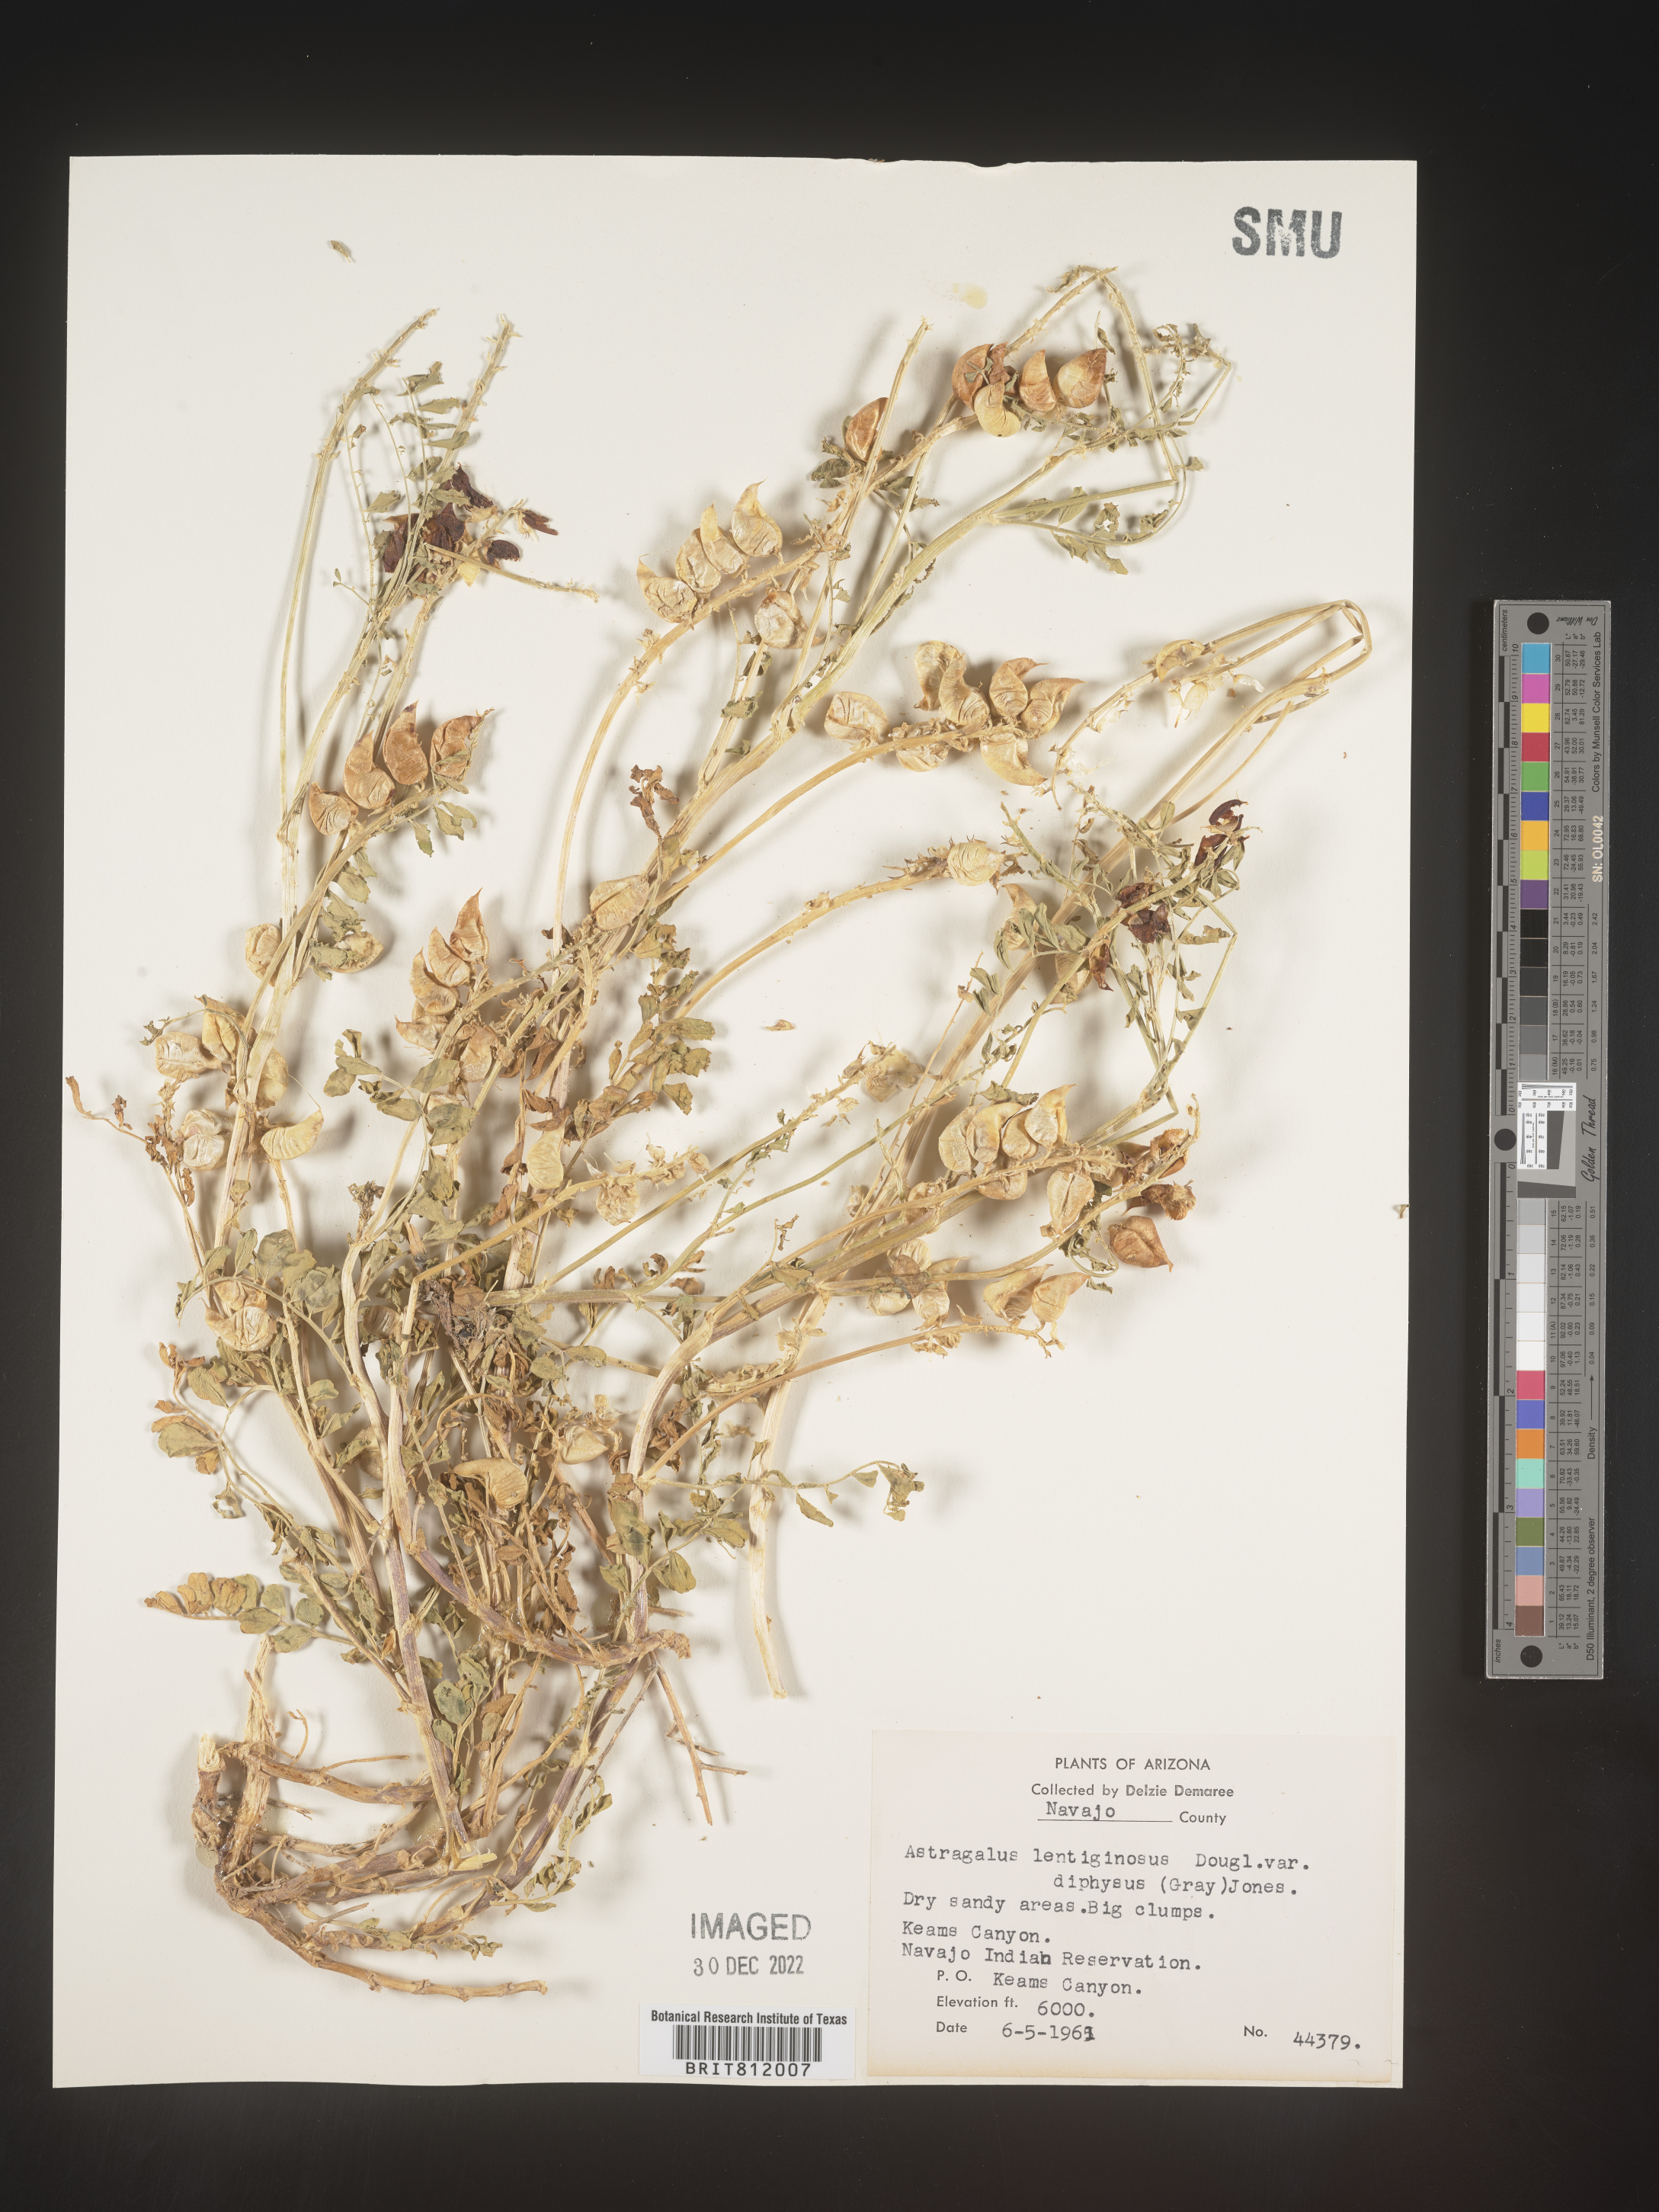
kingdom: Plantae
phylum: Tracheophyta
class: Magnoliopsida
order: Fabales
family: Fabaceae
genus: Astragalus
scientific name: Astragalus lentiginosus
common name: Freckled milkvetch
